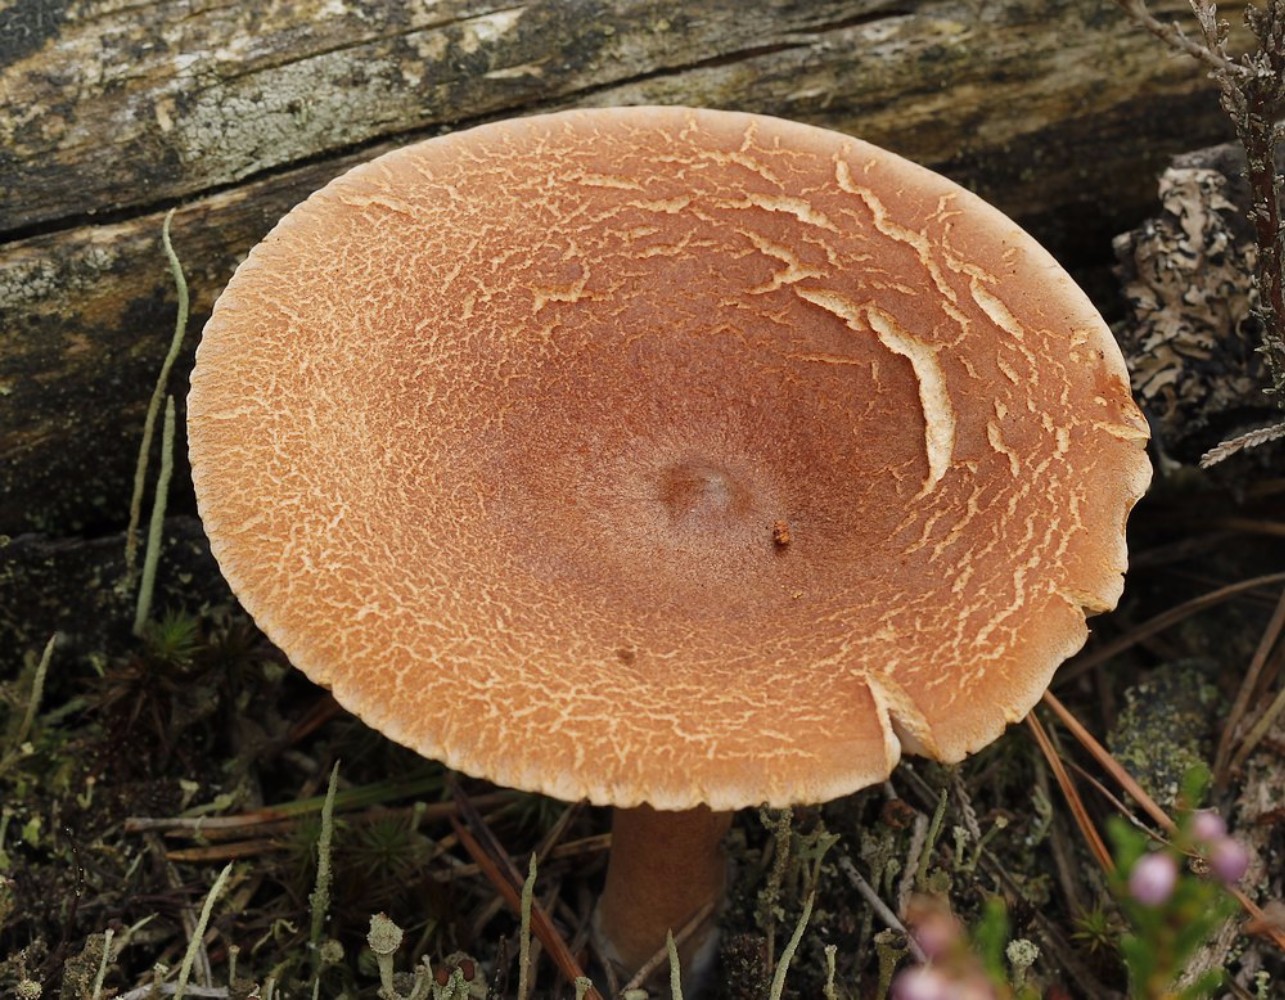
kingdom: Fungi
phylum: Basidiomycota
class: Agaricomycetes
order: Russulales
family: Russulaceae
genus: Lactarius
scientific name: Lactarius rufus
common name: rødbrun mælkehat
